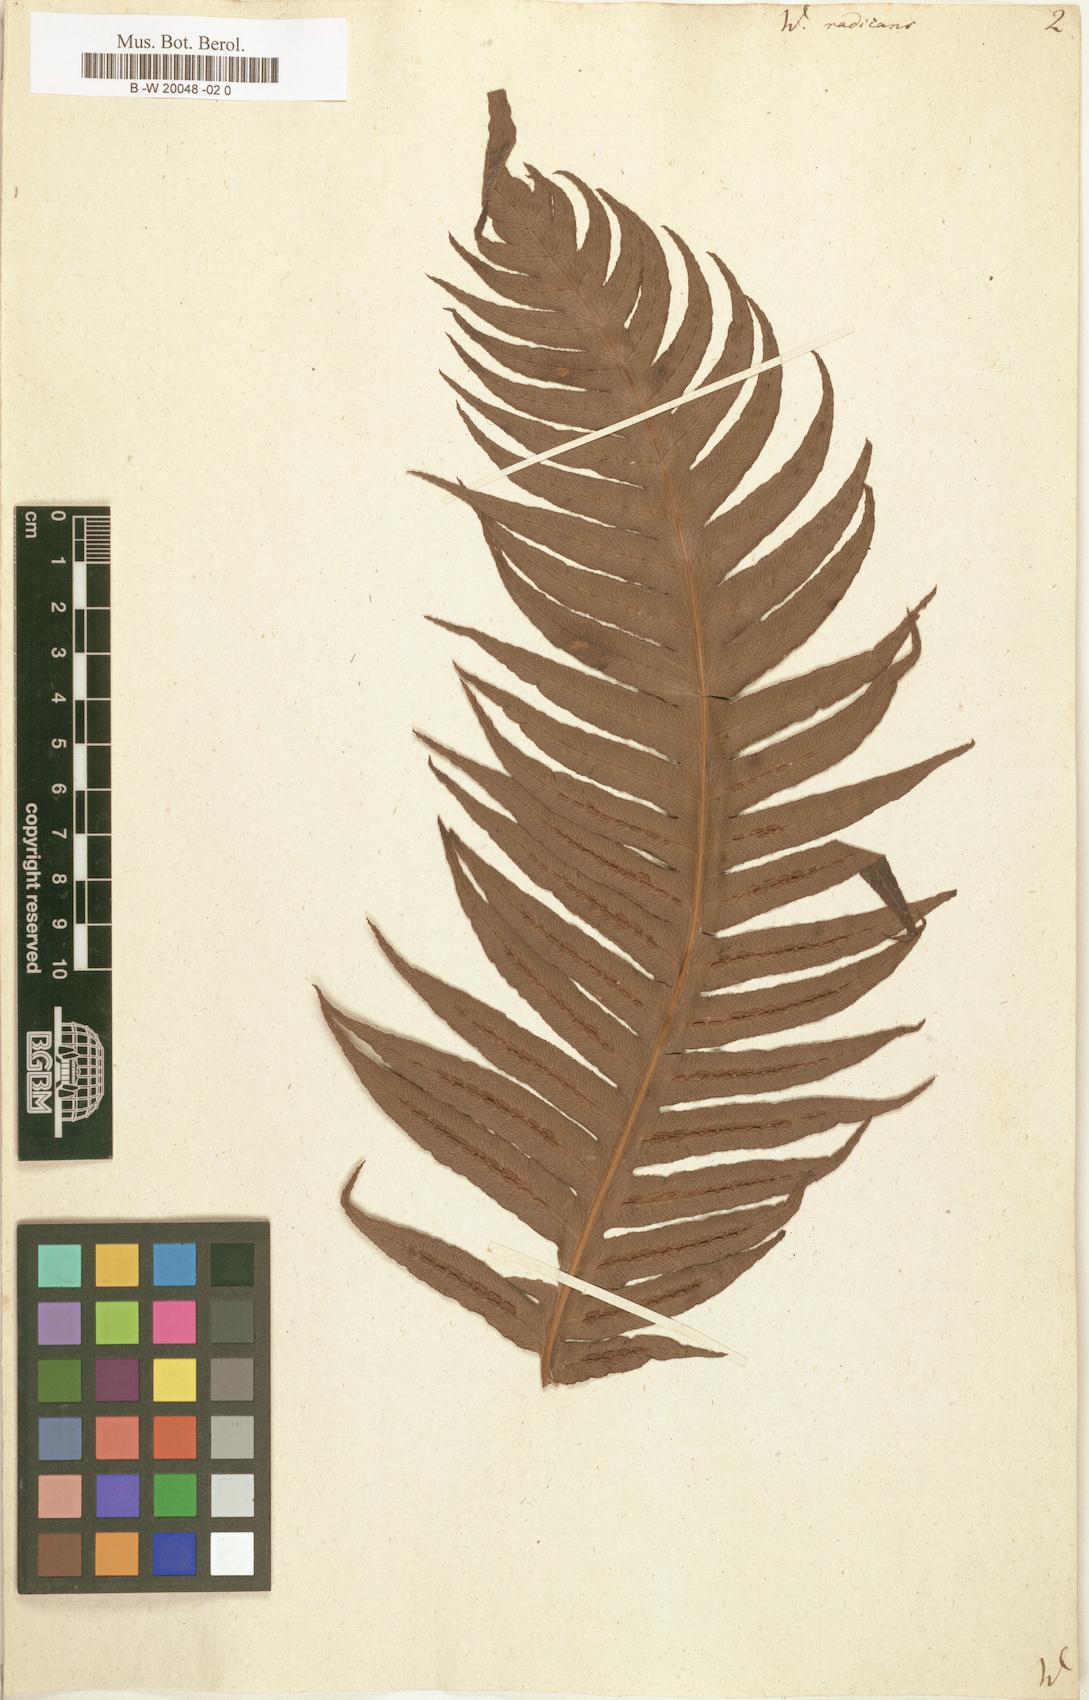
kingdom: Plantae
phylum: Tracheophyta
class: Polypodiopsida
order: Polypodiales
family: Blechnaceae
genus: Woodwardia
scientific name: Woodwardia radicans
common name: Rooting chainfern
